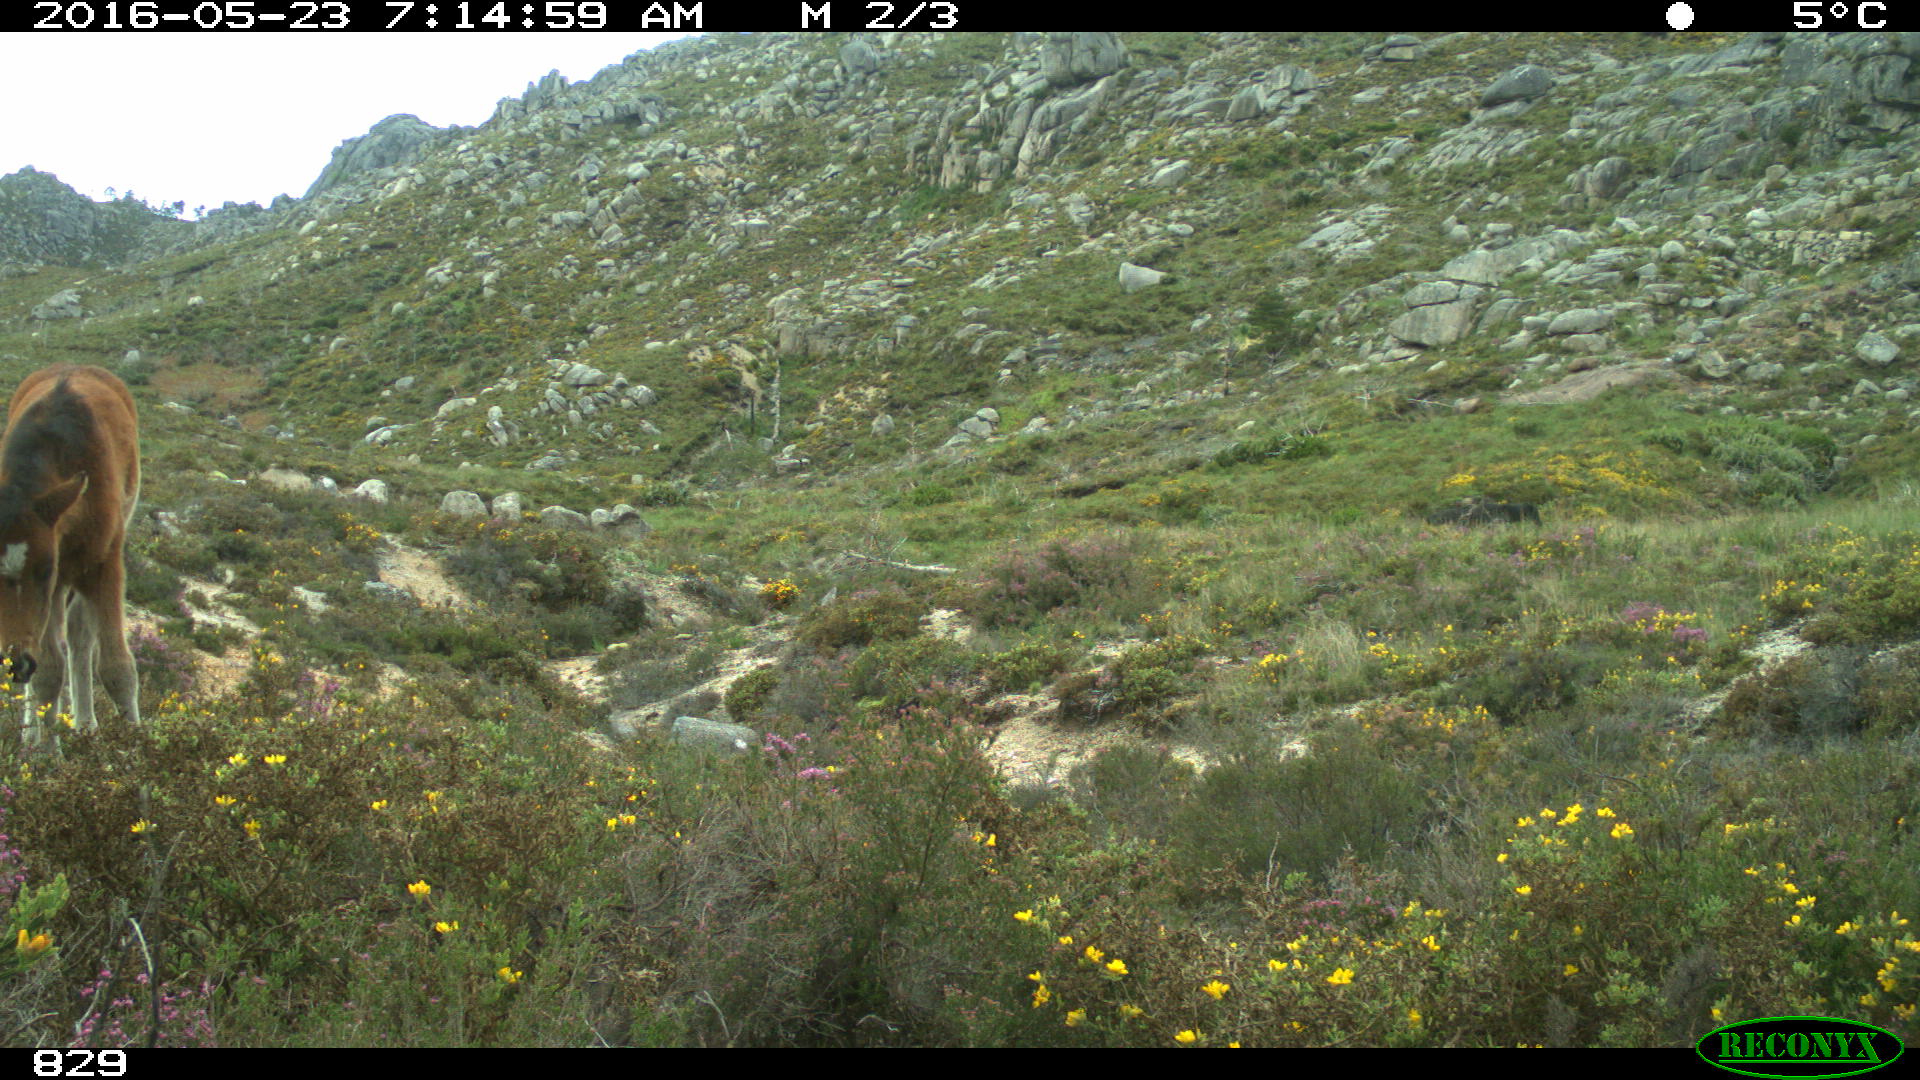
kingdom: Animalia
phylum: Chordata
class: Mammalia
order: Perissodactyla
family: Equidae
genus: Equus
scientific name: Equus caballus
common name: Horse
